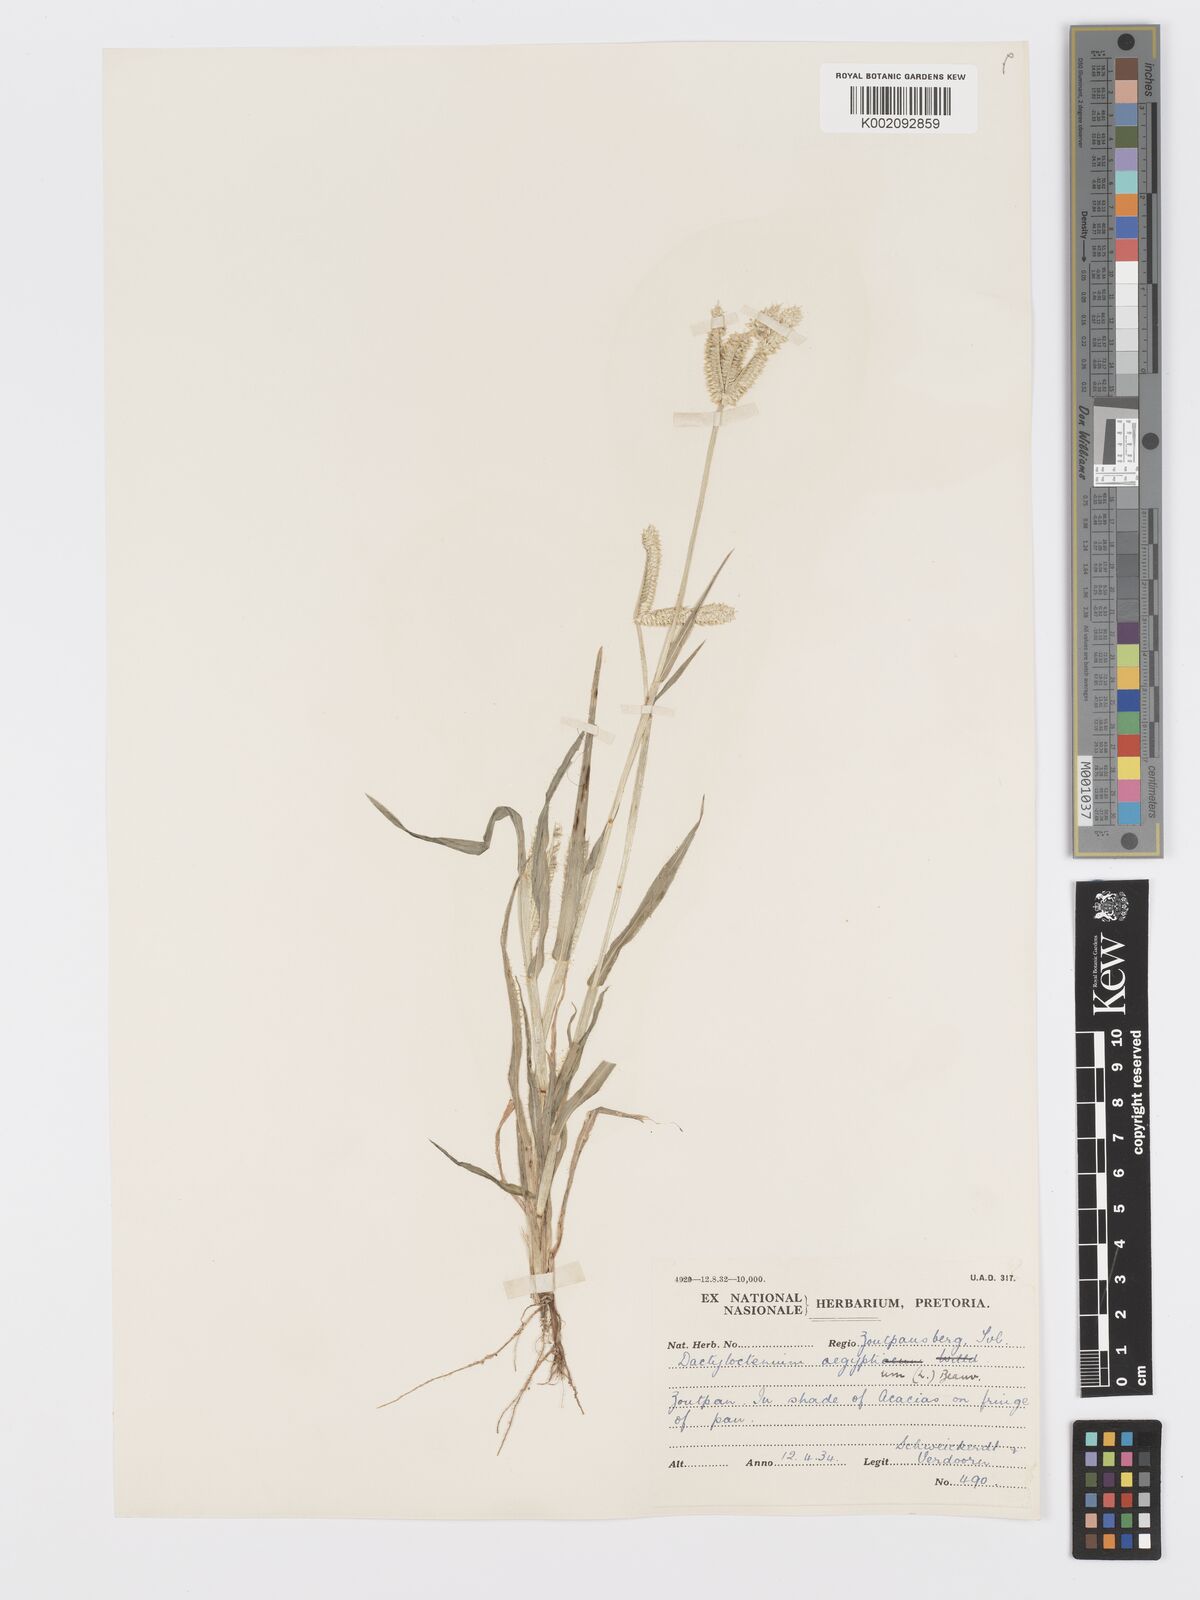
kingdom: Plantae
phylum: Tracheophyta
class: Liliopsida
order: Poales
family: Poaceae
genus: Dactyloctenium
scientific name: Dactyloctenium aegyptium
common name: Egyptian grass
